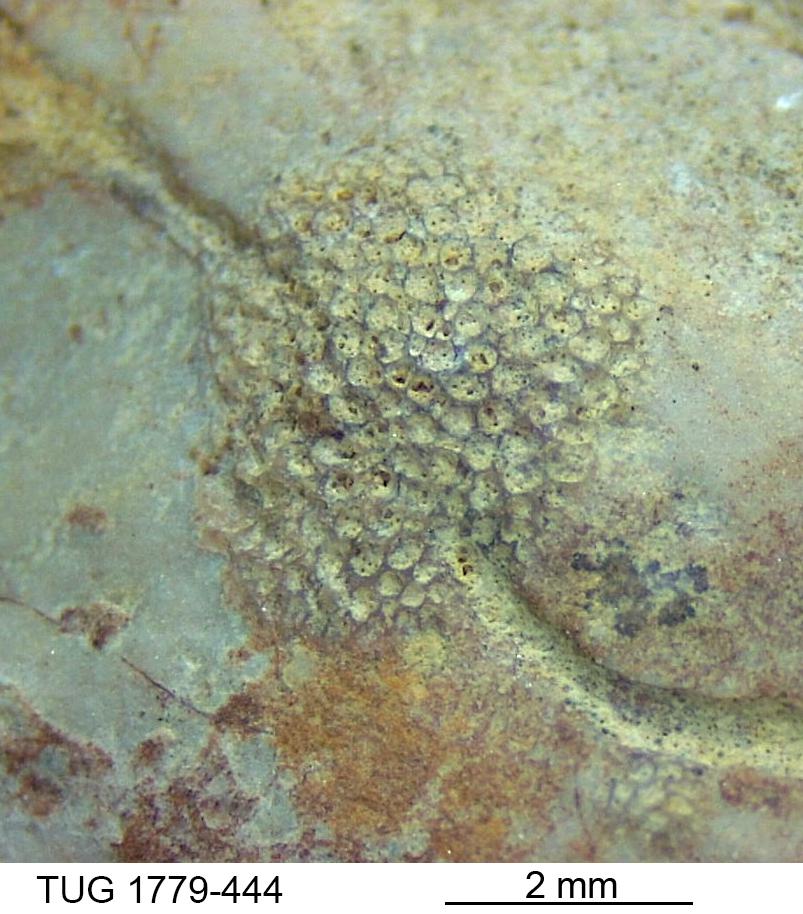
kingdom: Animalia
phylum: Arthropoda
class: Trilobita
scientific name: Trilobita
